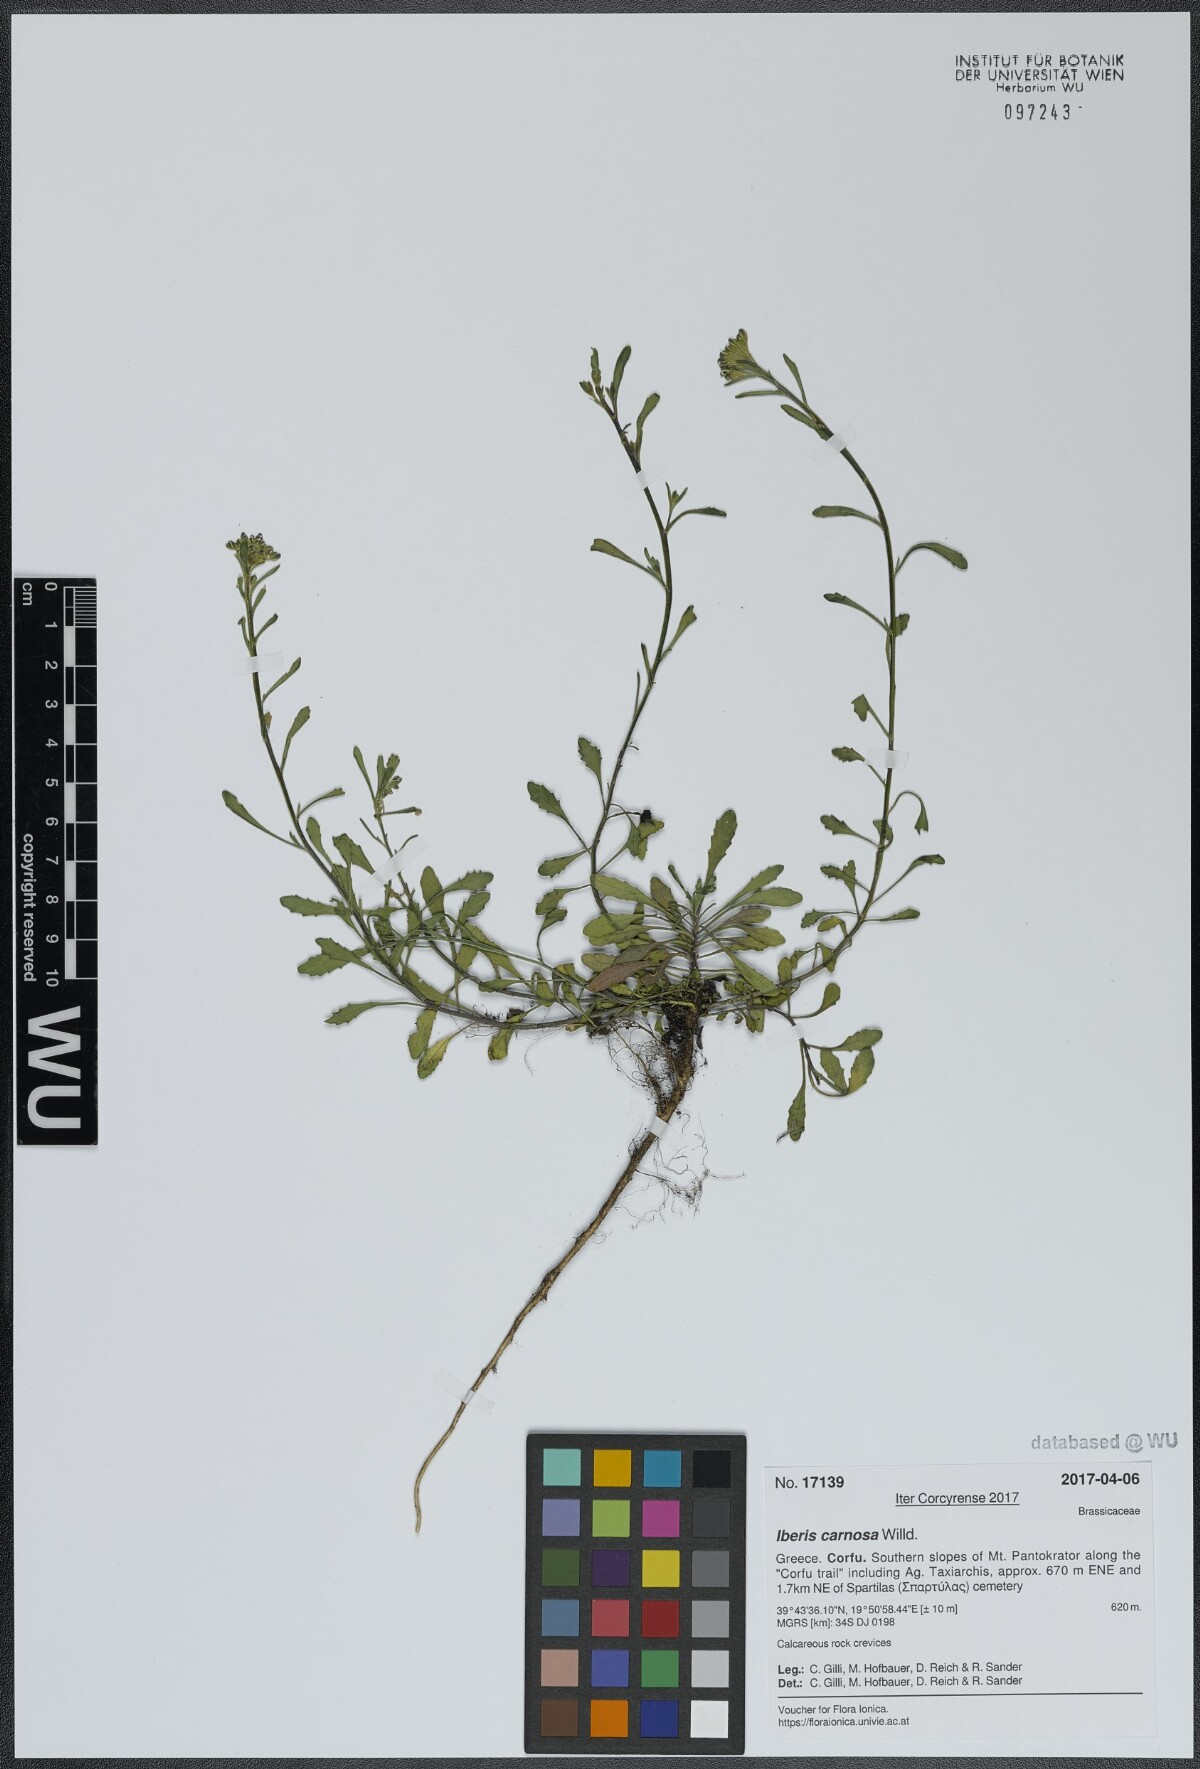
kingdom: Plantae
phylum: Tracheophyta
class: Magnoliopsida
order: Brassicales
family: Brassicaceae
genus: Iberis
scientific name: Iberis carnosa
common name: Pruit's candytuft
